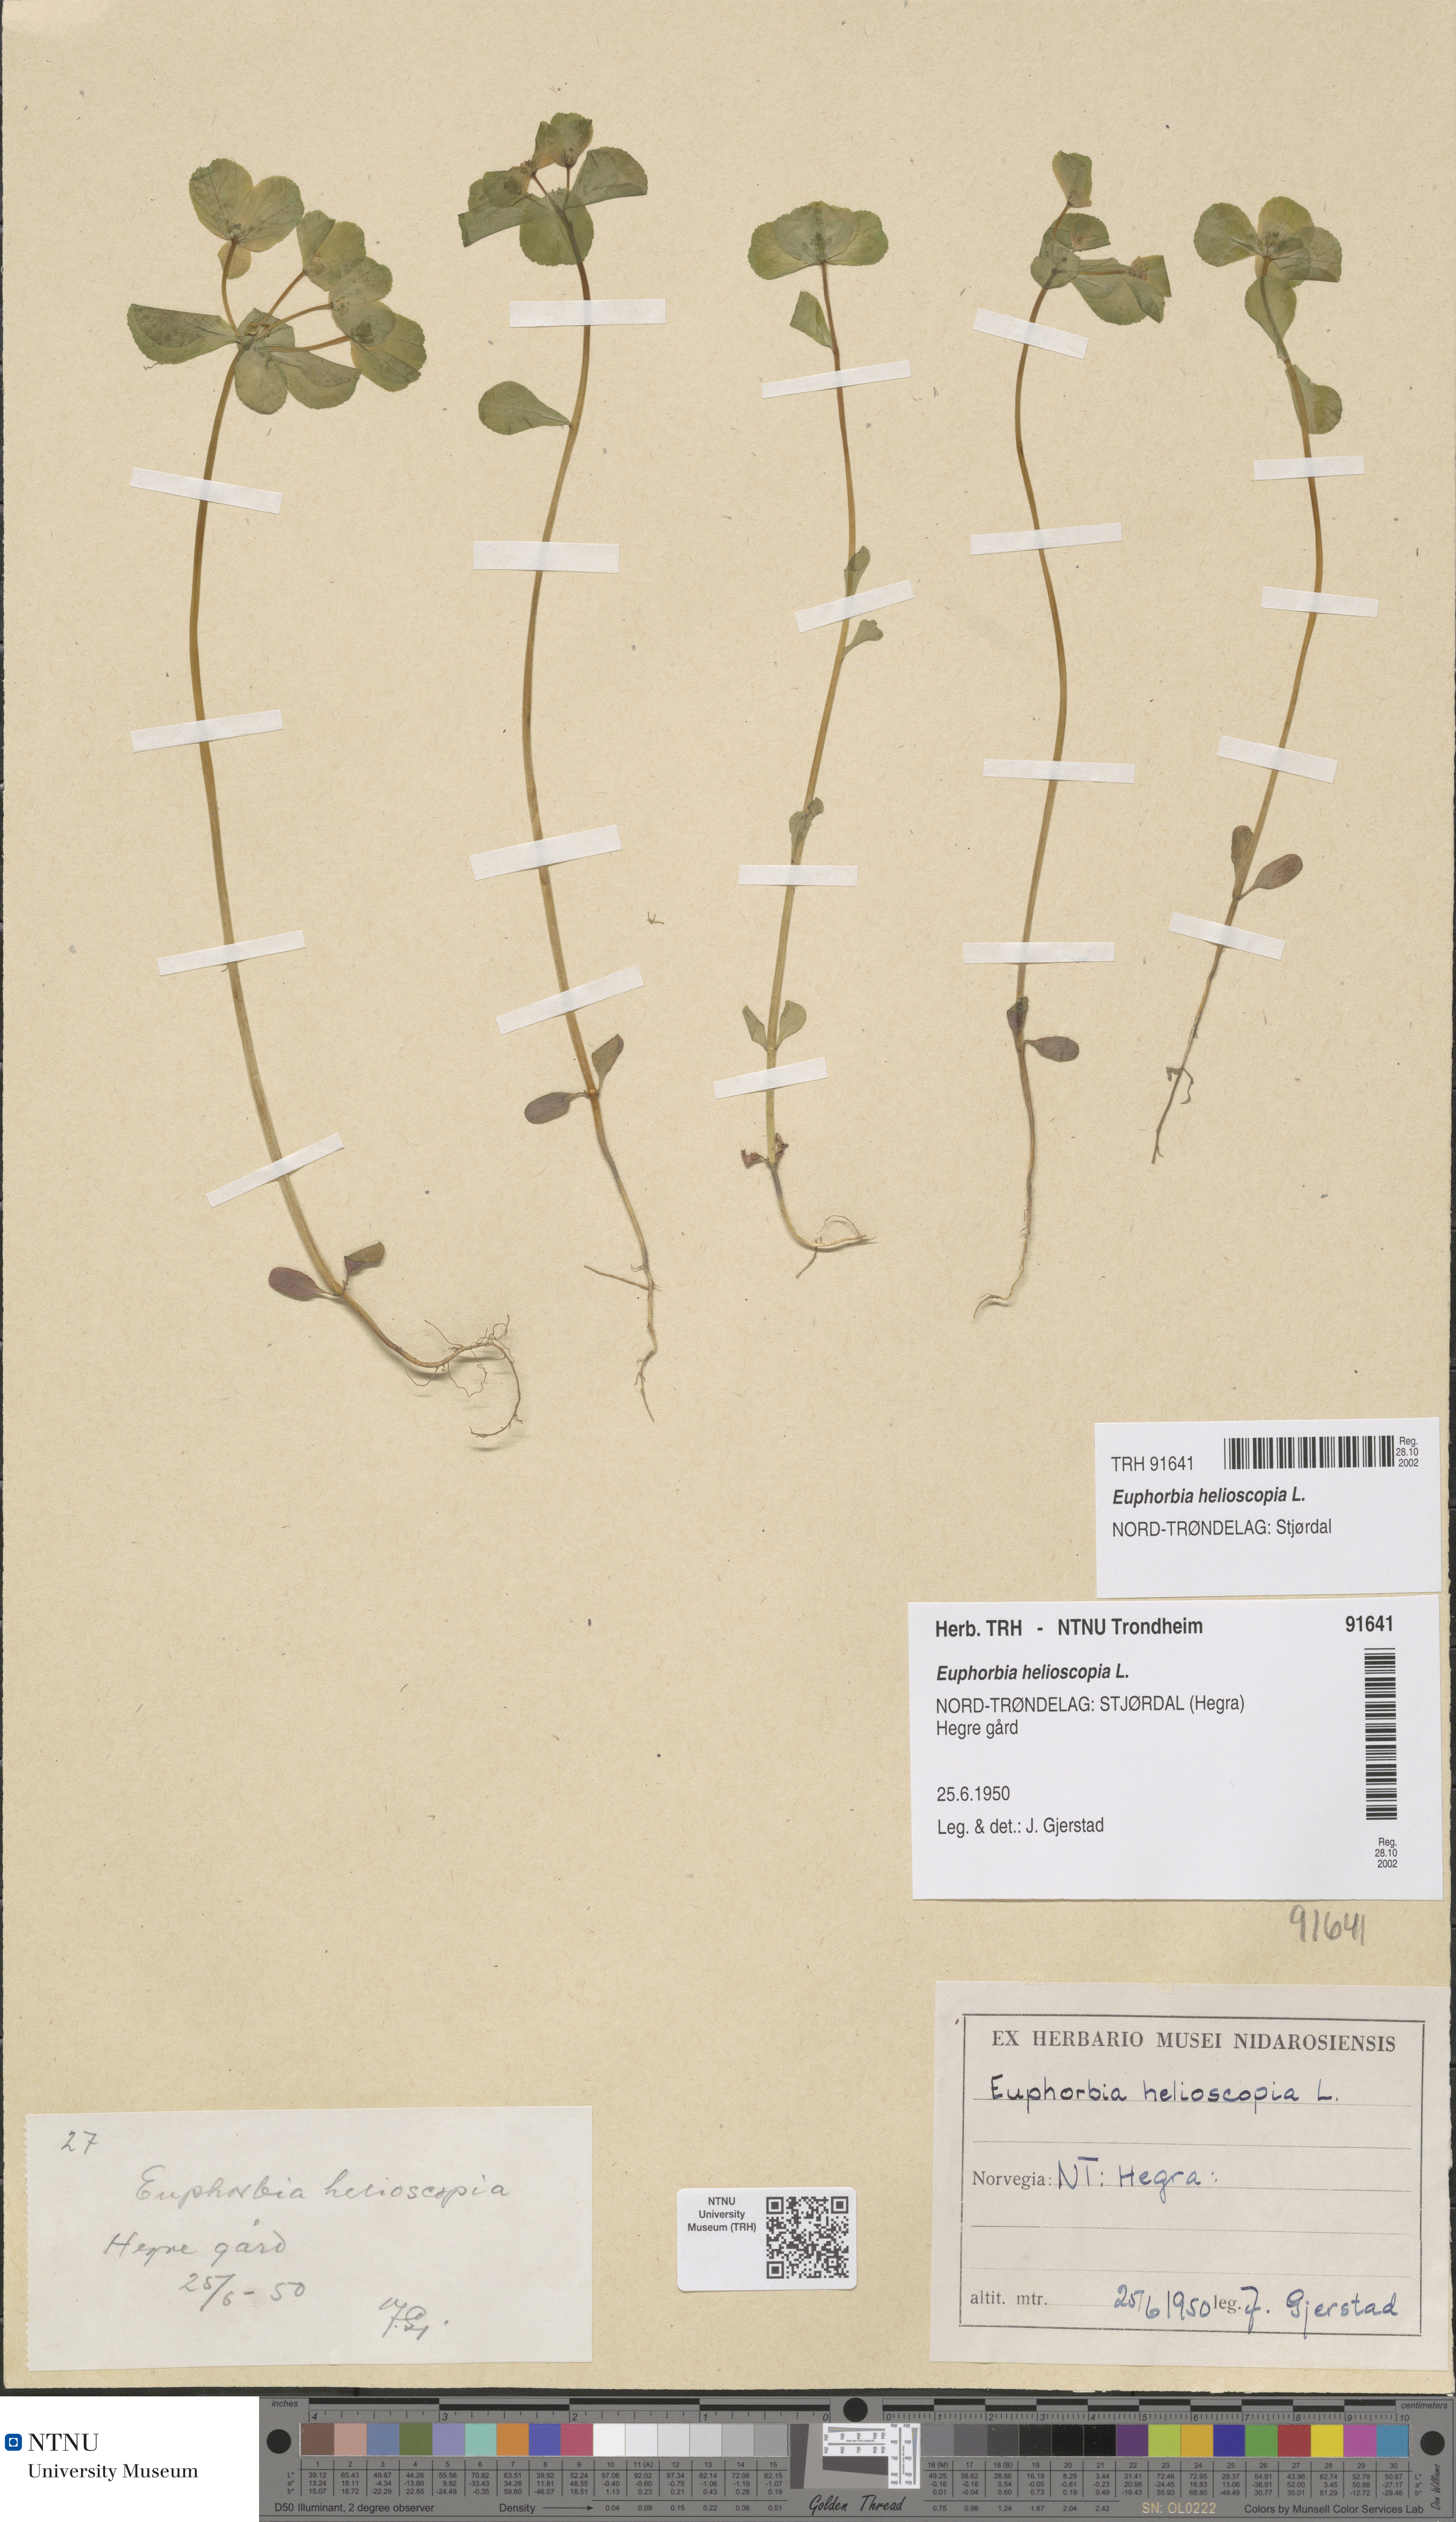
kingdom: Plantae
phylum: Tracheophyta
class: Magnoliopsida
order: Malpighiales
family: Euphorbiaceae
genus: Euphorbia
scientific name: Euphorbia helioscopia
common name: Sun spurge
